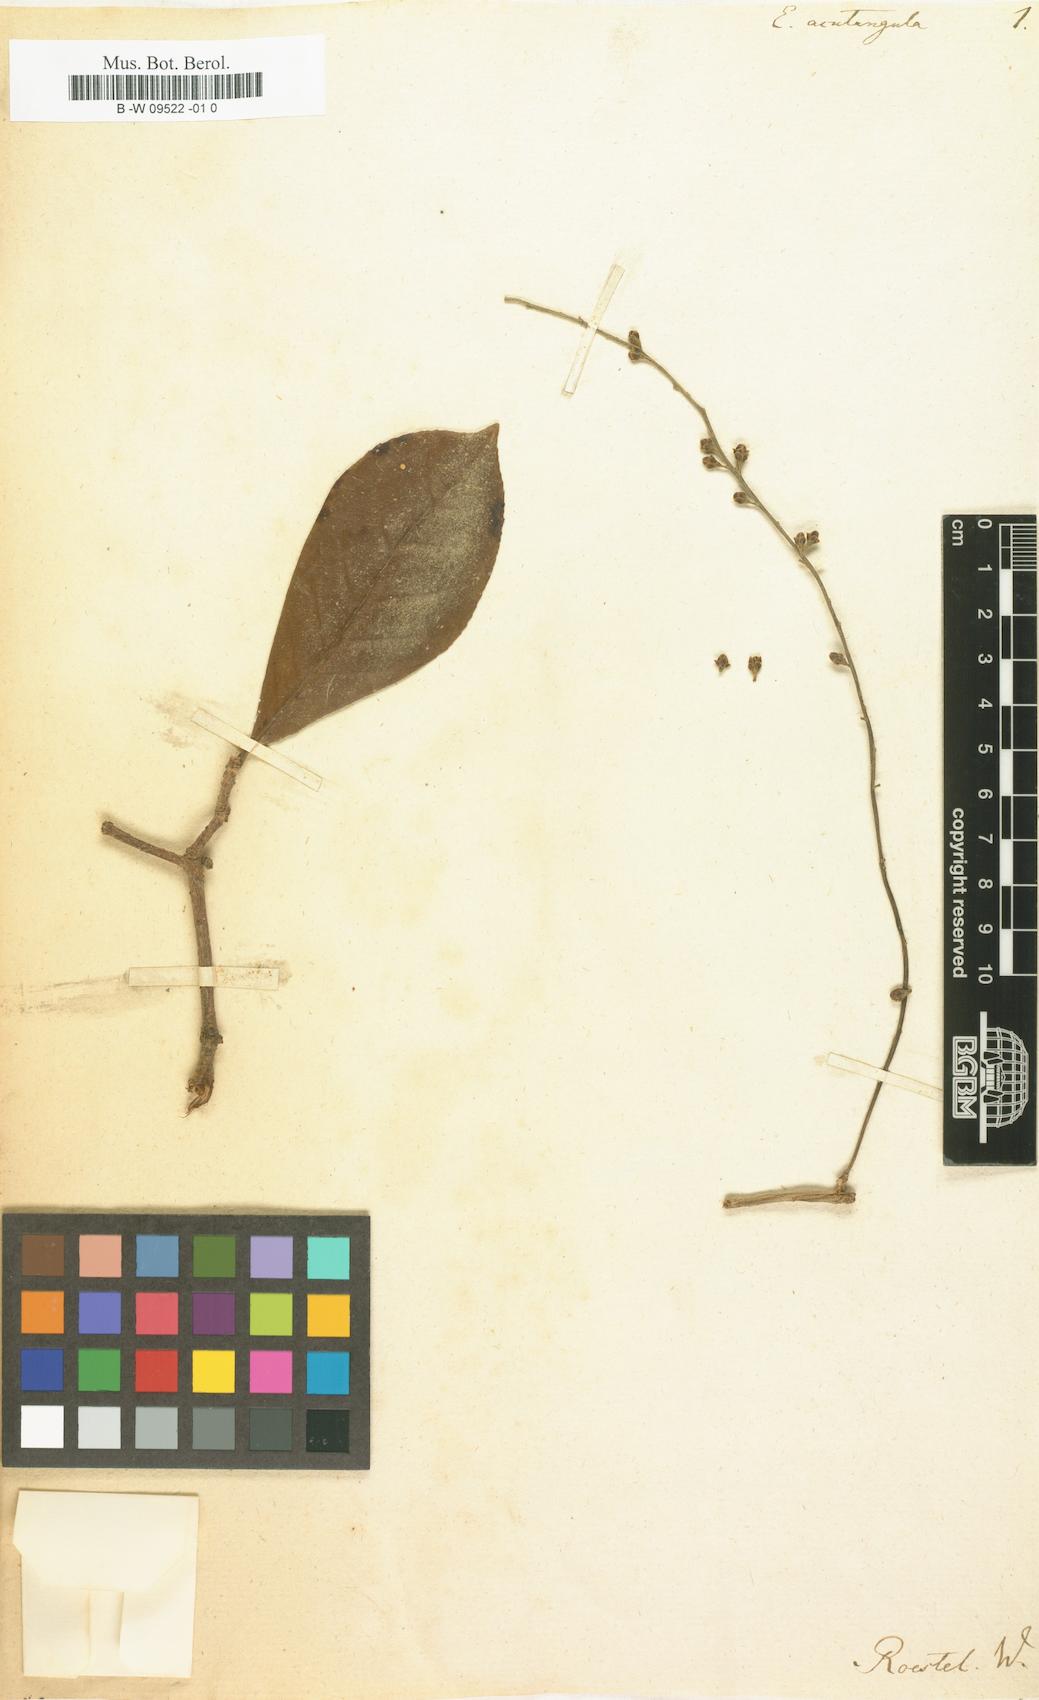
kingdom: Plantae
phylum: Tracheophyta
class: Magnoliopsida
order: Myrtales
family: Myrtaceae
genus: Syzygium
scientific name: Syzygium acutangulum
